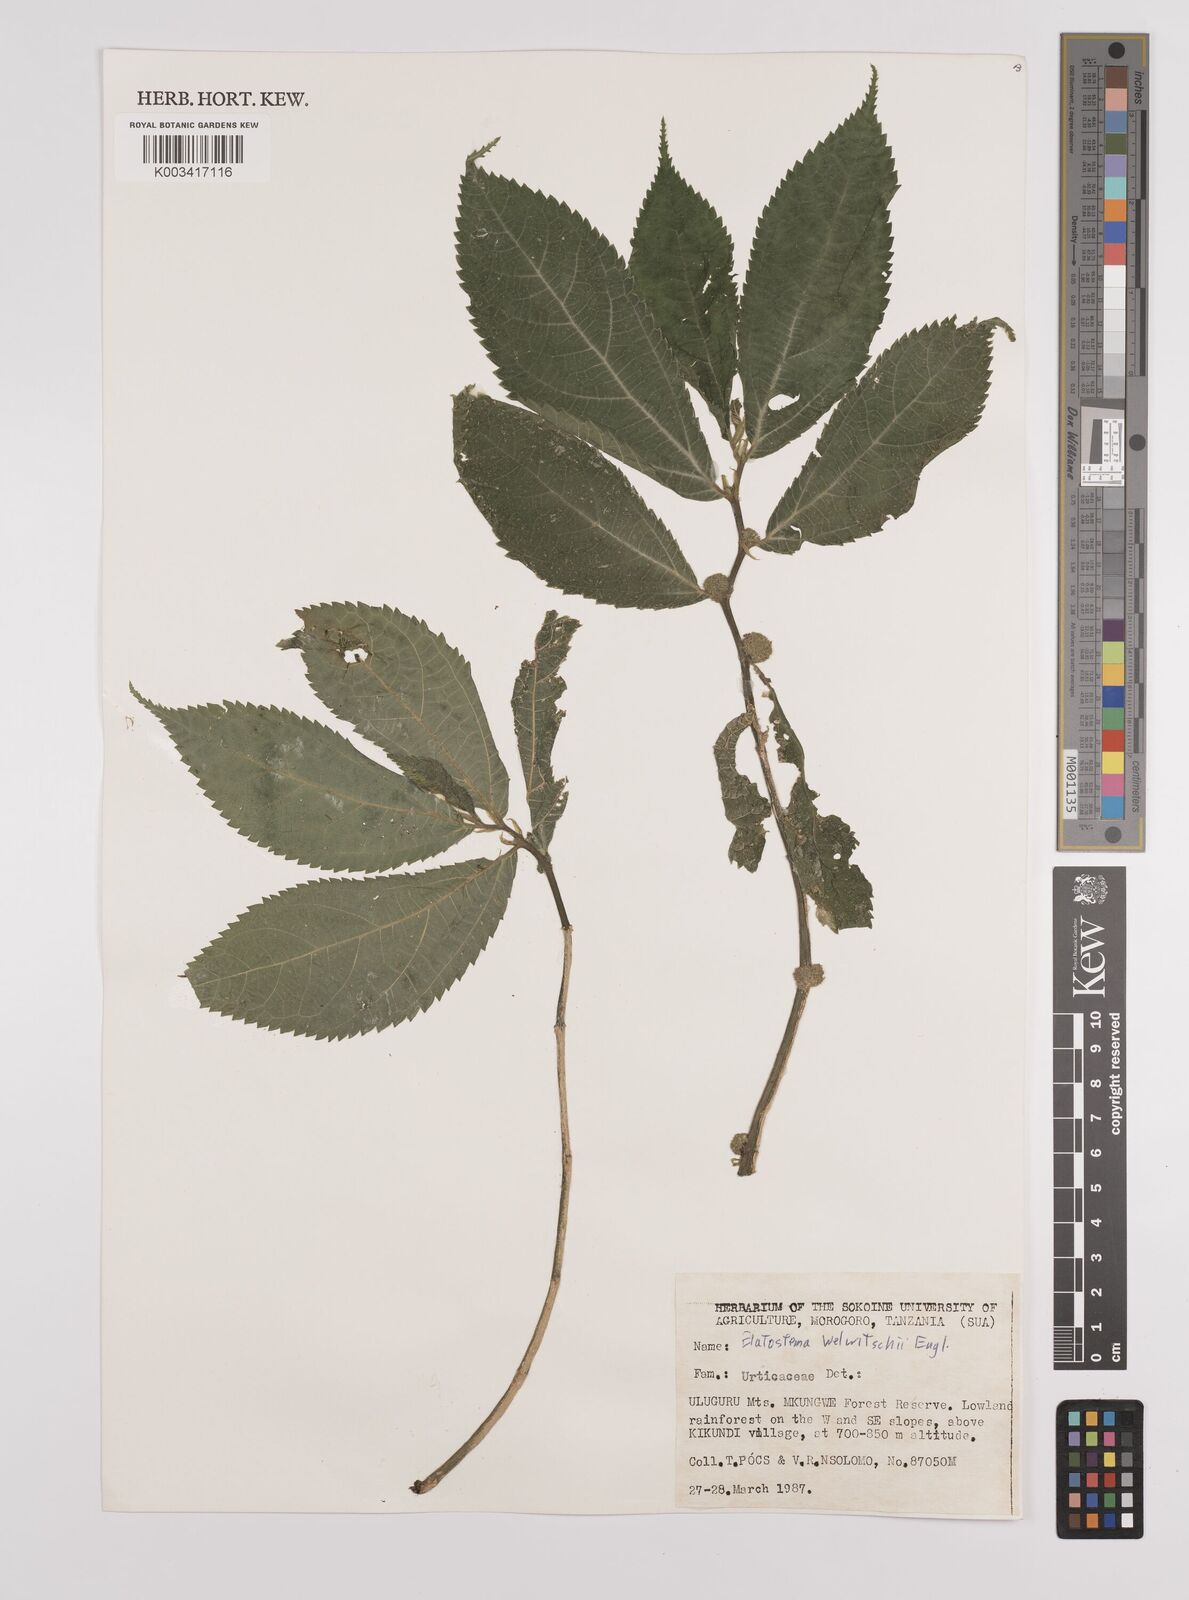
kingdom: Plantae
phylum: Tracheophyta
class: Magnoliopsida
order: Rosales
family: Urticaceae
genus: Elatostema
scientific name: Elatostema welwitschii
